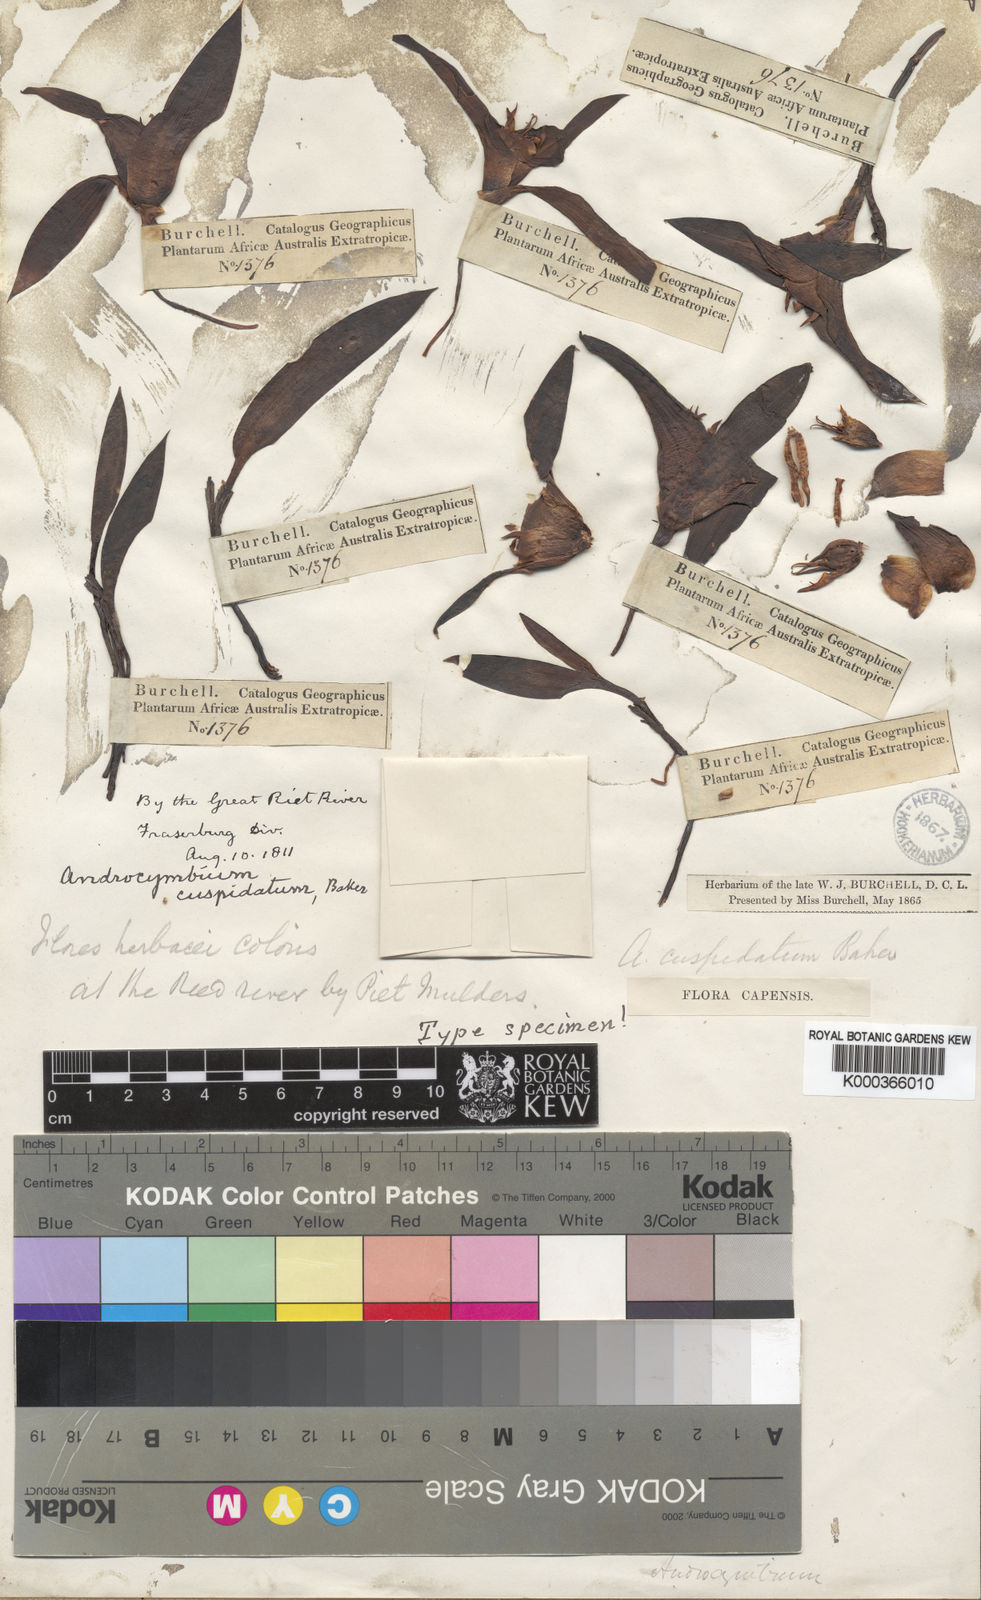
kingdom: Plantae
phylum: Tracheophyta
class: Liliopsida
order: Liliales
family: Colchicaceae
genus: Colchicum
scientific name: Colchicum cuspidatum
